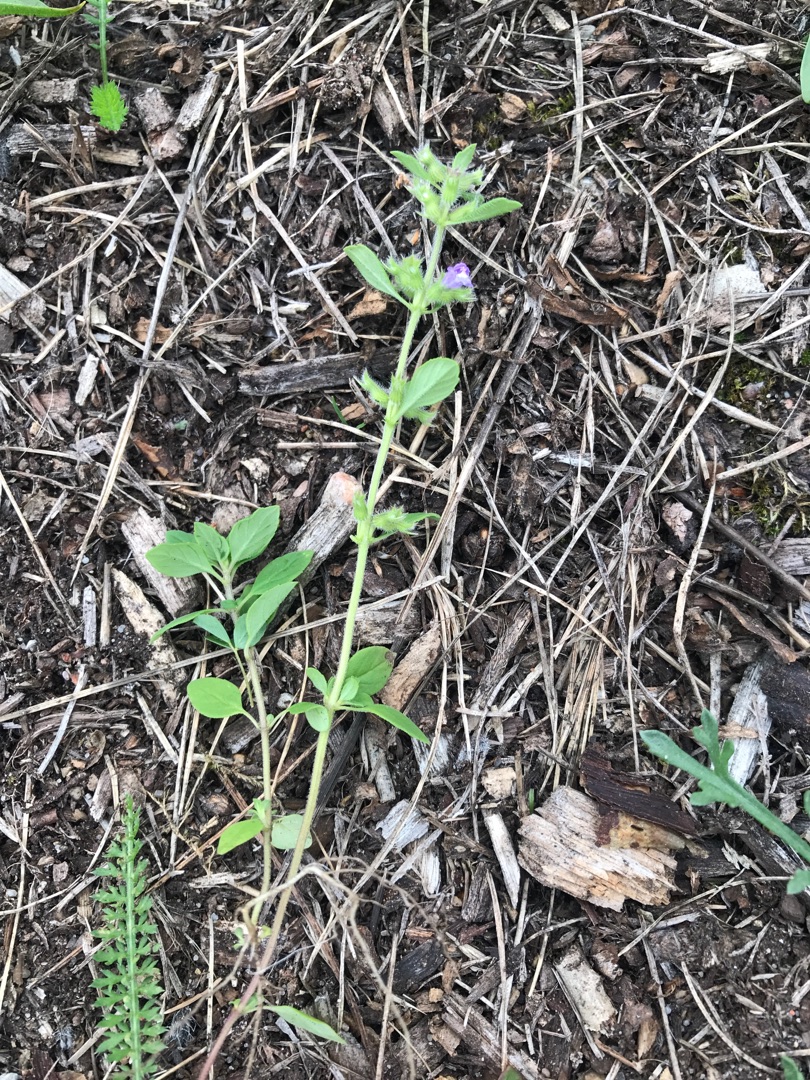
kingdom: Plantae
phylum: Tracheophyta
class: Magnoliopsida
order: Lamiales
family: Lamiaceae
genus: Clinopodium
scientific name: Clinopodium acinos
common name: Voldtimian
